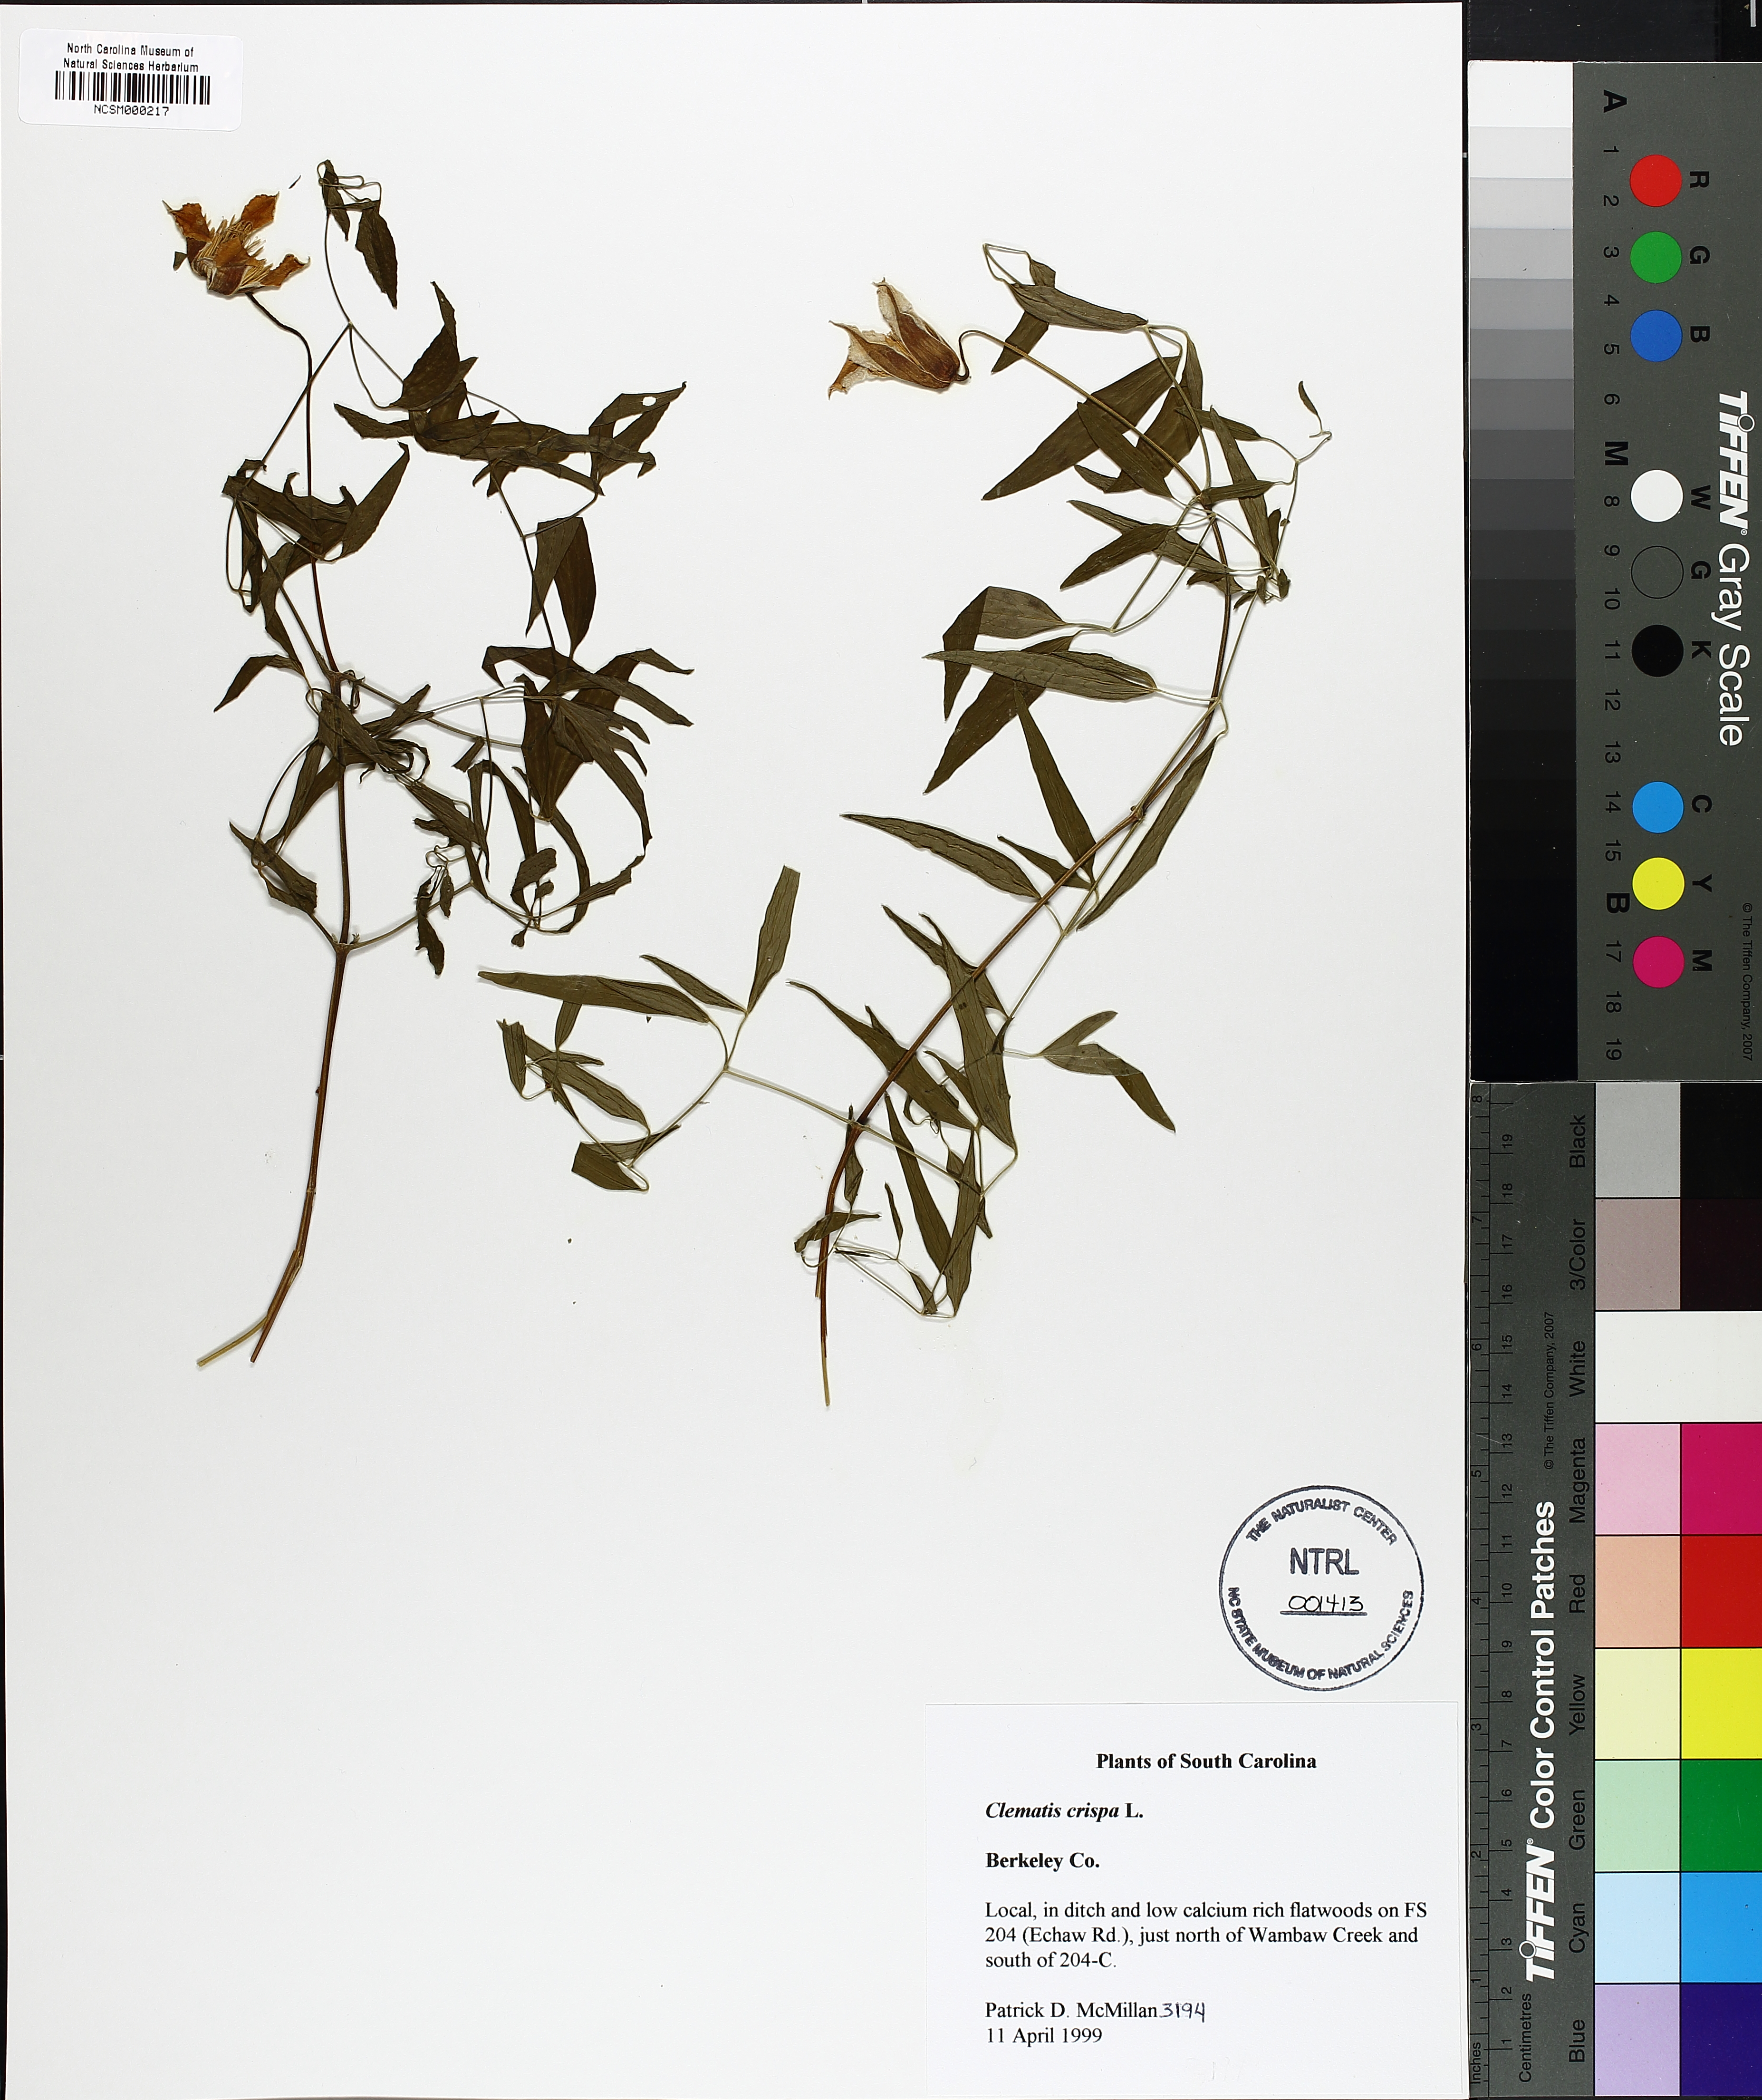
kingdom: Plantae
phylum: Tracheophyta
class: Magnoliopsida
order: Ranunculales
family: Ranunculaceae
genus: Clematis
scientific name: Clematis crispa
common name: Curly clematis
